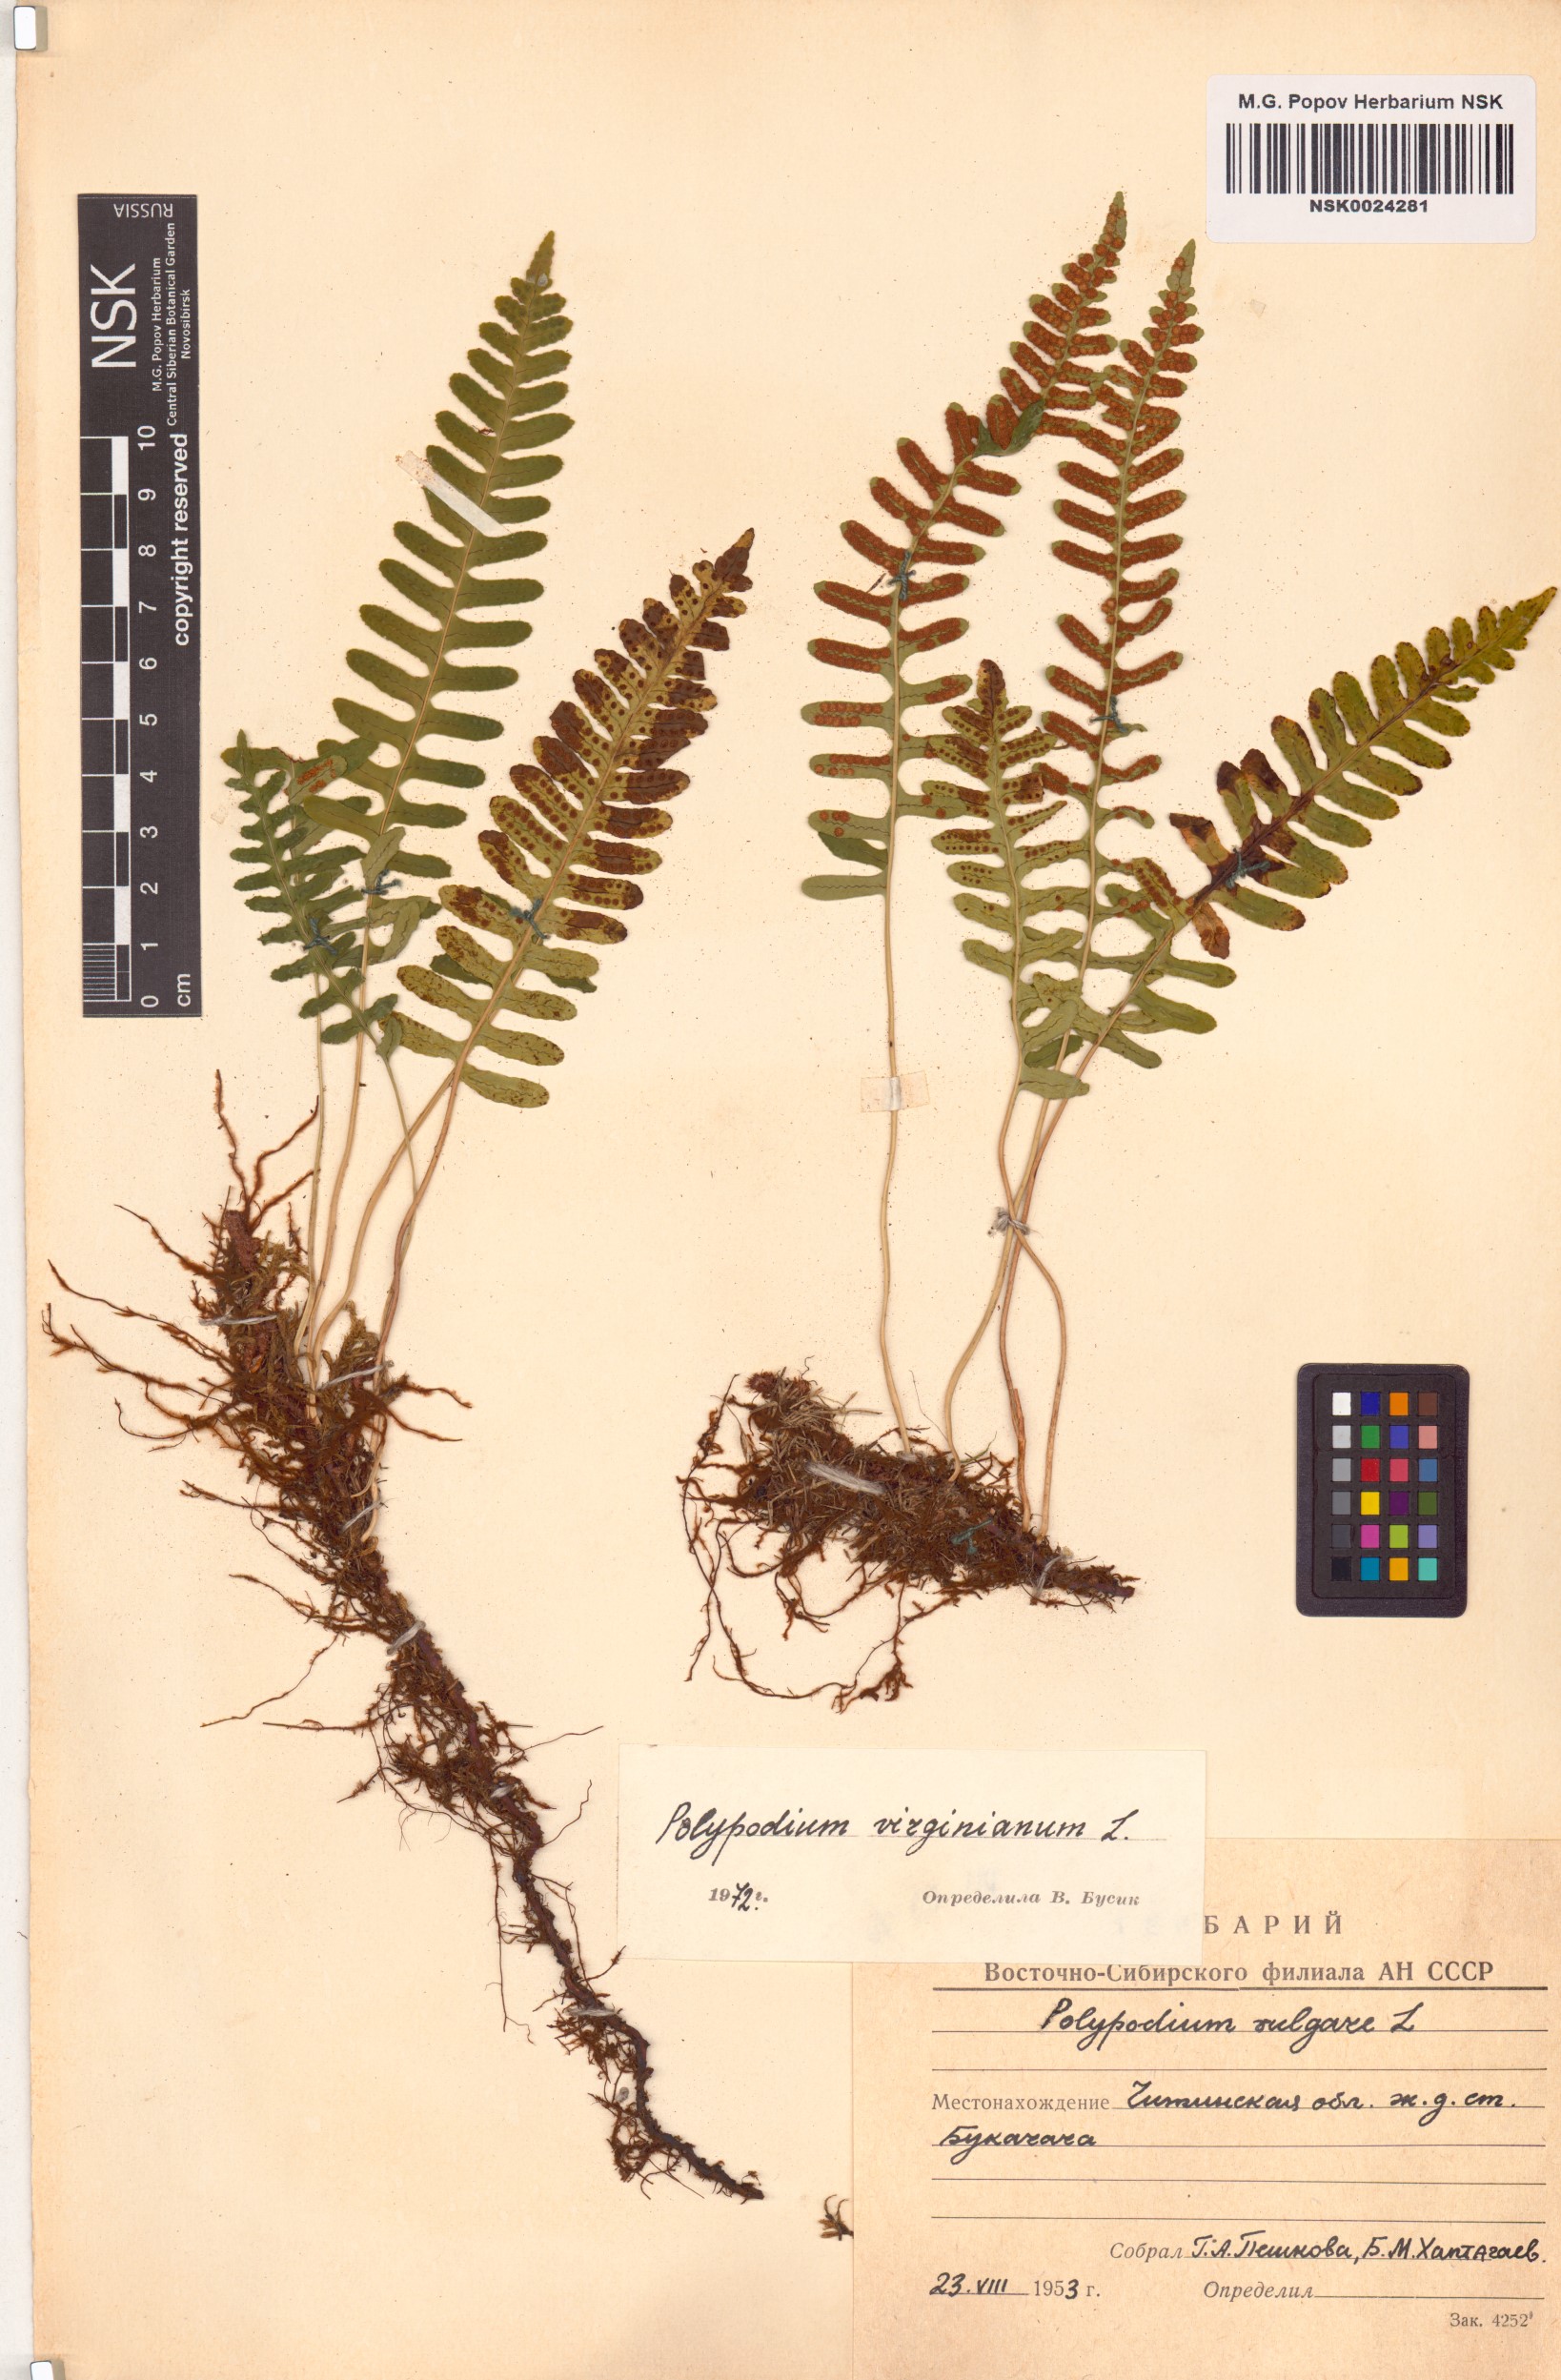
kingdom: Plantae
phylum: Tracheophyta
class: Polypodiopsida
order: Polypodiales
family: Polypodiaceae
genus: Polypodium
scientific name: Polypodium virginianum
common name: American wall fern
